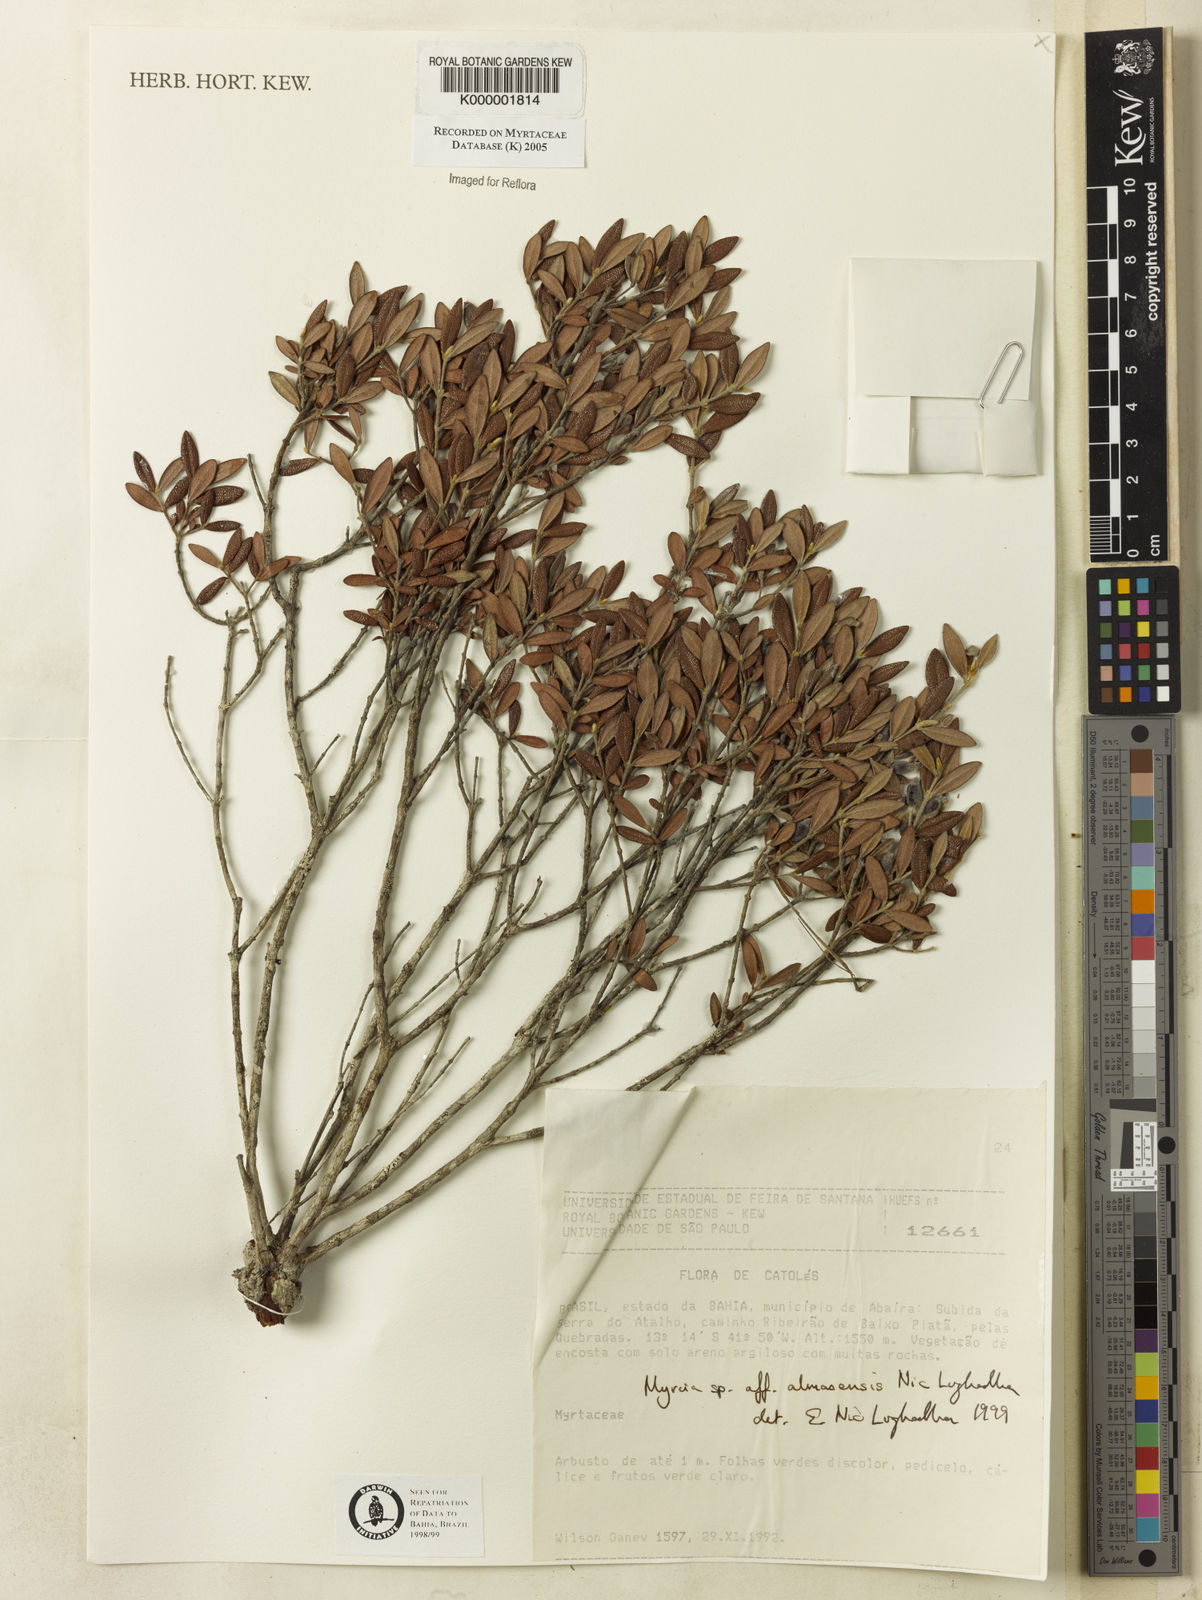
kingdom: Plantae
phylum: Tracheophyta
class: Magnoliopsida
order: Myrtales
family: Myrtaceae
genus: Myrcia
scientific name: Myrcia almasensis
